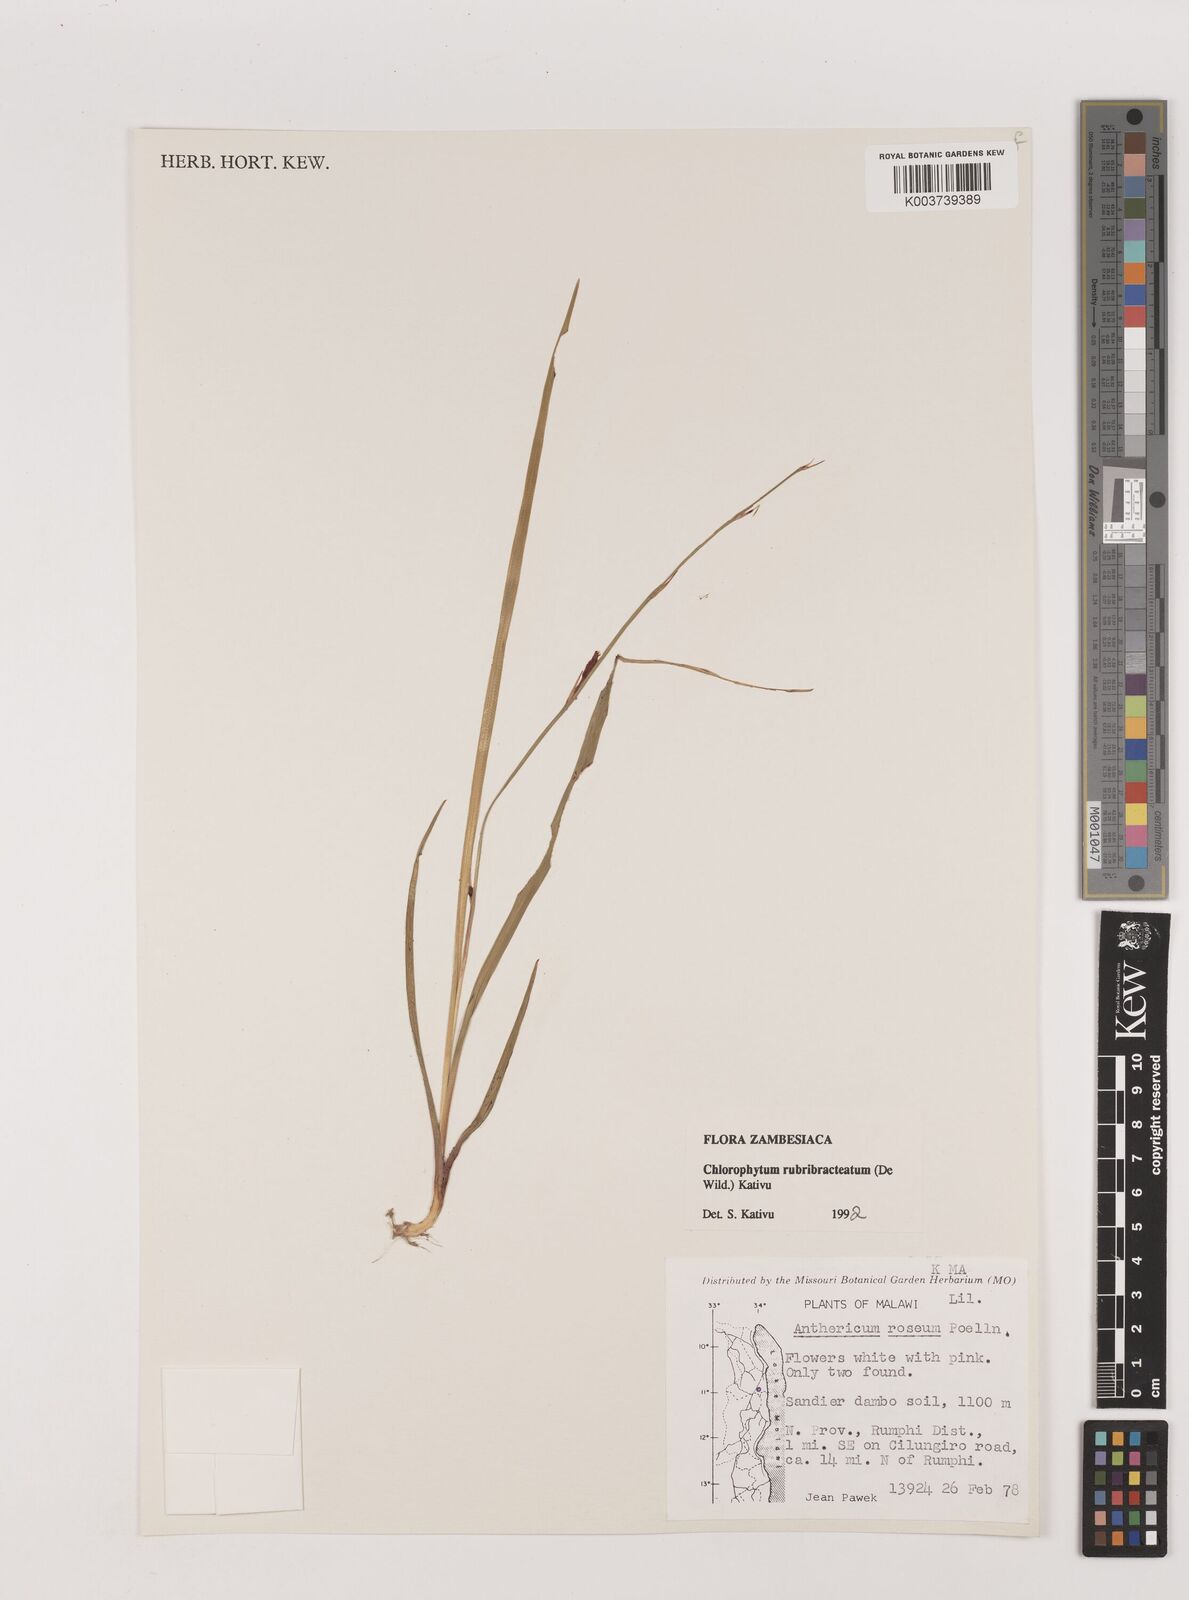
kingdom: Plantae
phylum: Tracheophyta
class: Liliopsida
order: Asparagales
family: Asparagaceae
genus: Chlorophytum
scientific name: Chlorophytum rubribracteatum
